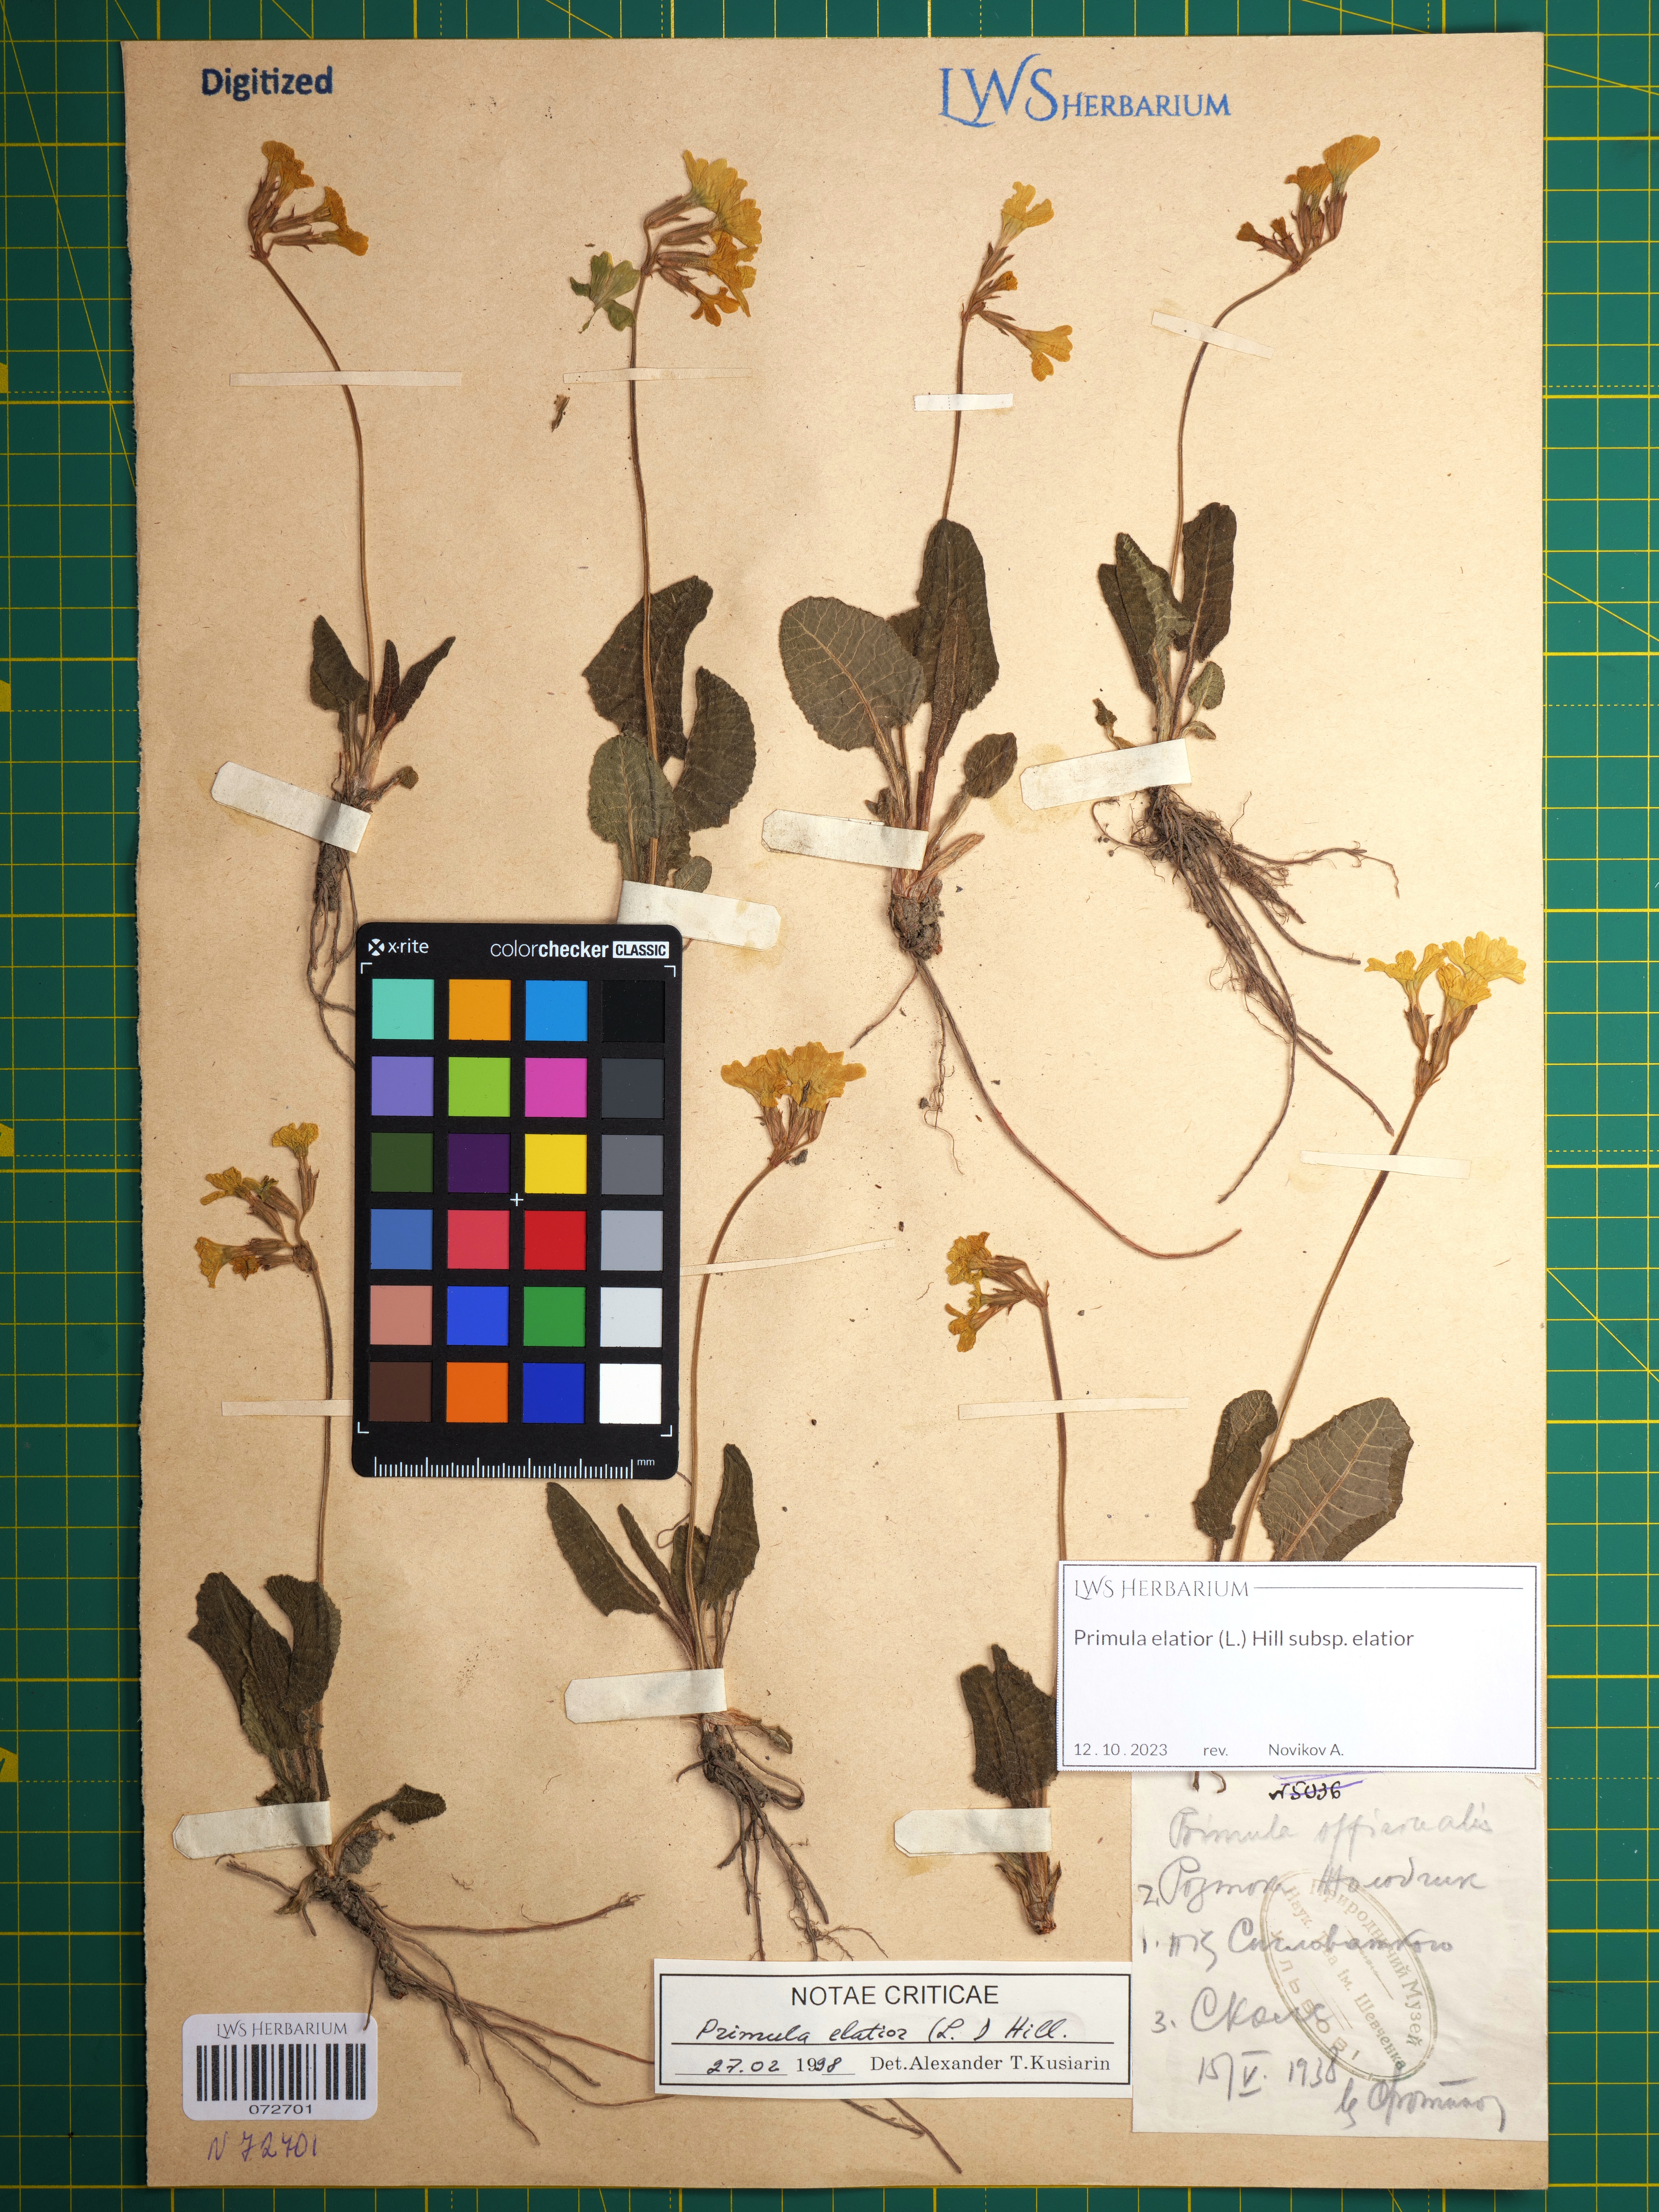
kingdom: Plantae
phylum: Tracheophyta
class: Magnoliopsida
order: Ericales
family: Primulaceae
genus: Primula
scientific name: Primula elatior
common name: Oxlip
